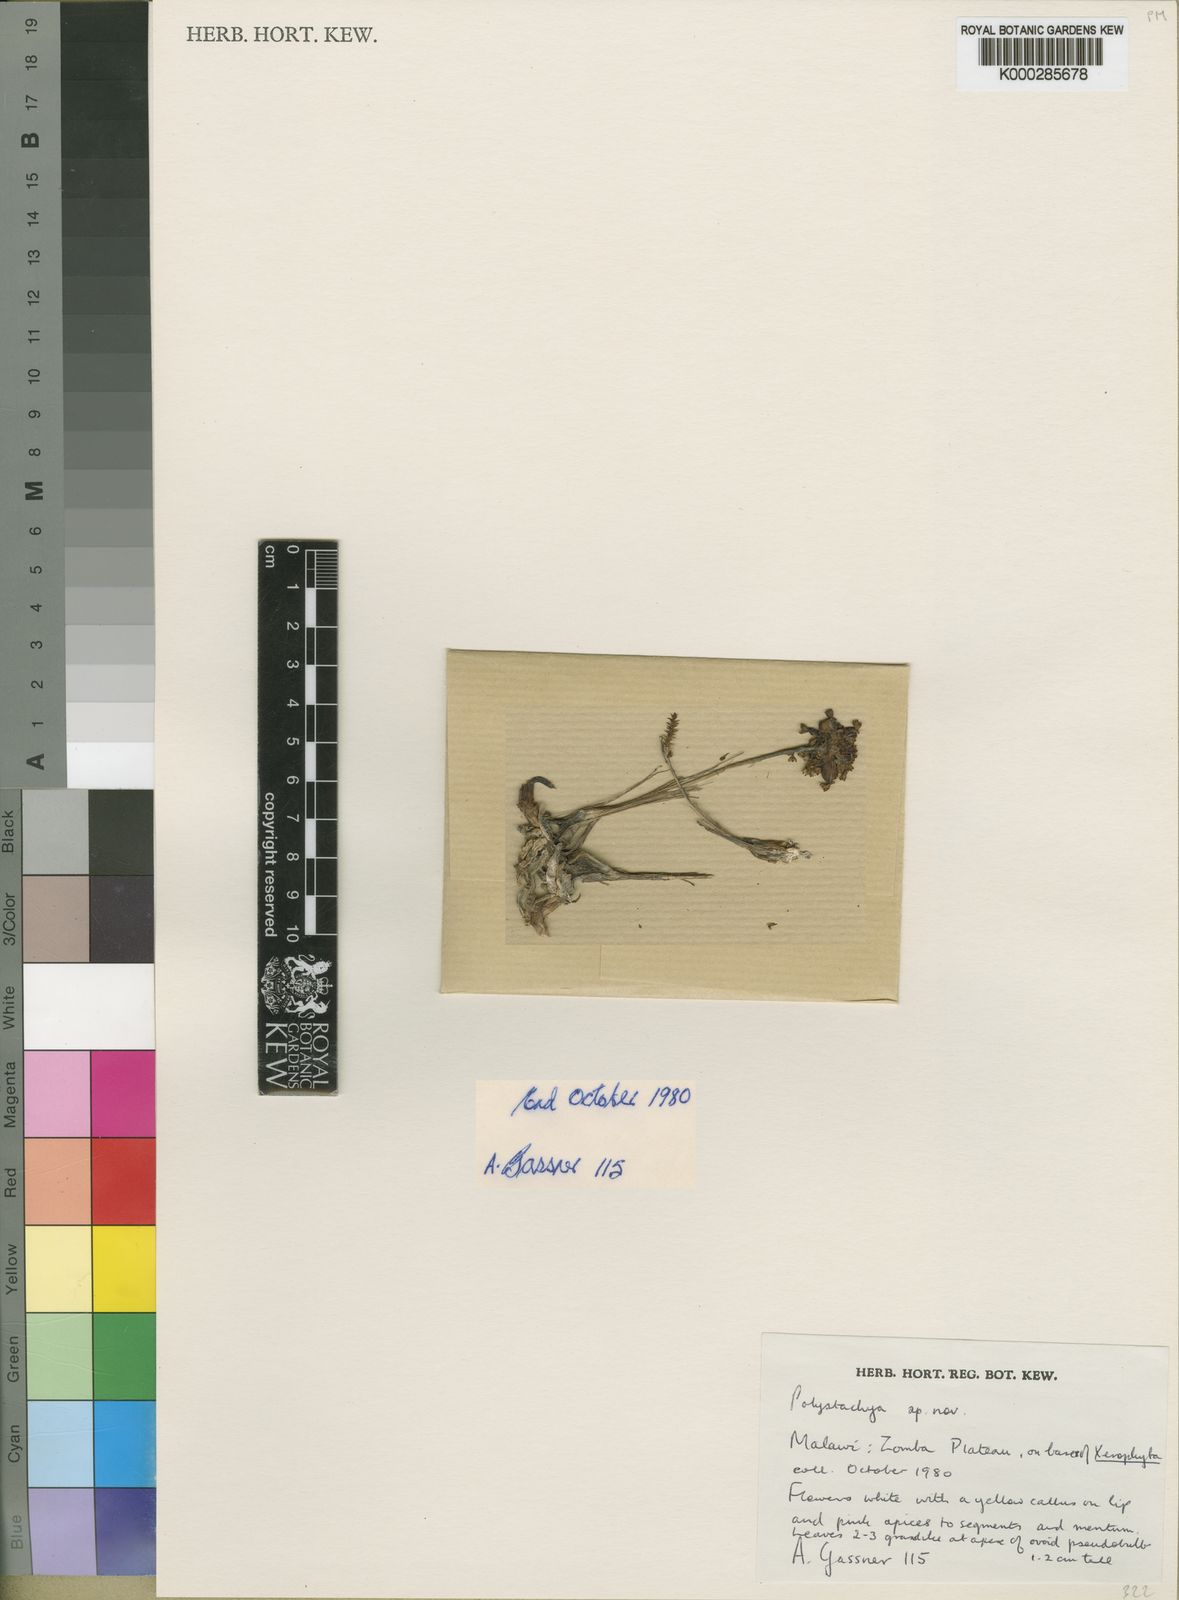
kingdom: Plantae
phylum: Tracheophyta
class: Liliopsida
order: Asparagales
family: Orchidaceae
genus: Polystachya
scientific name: Polystachya songaniensis
